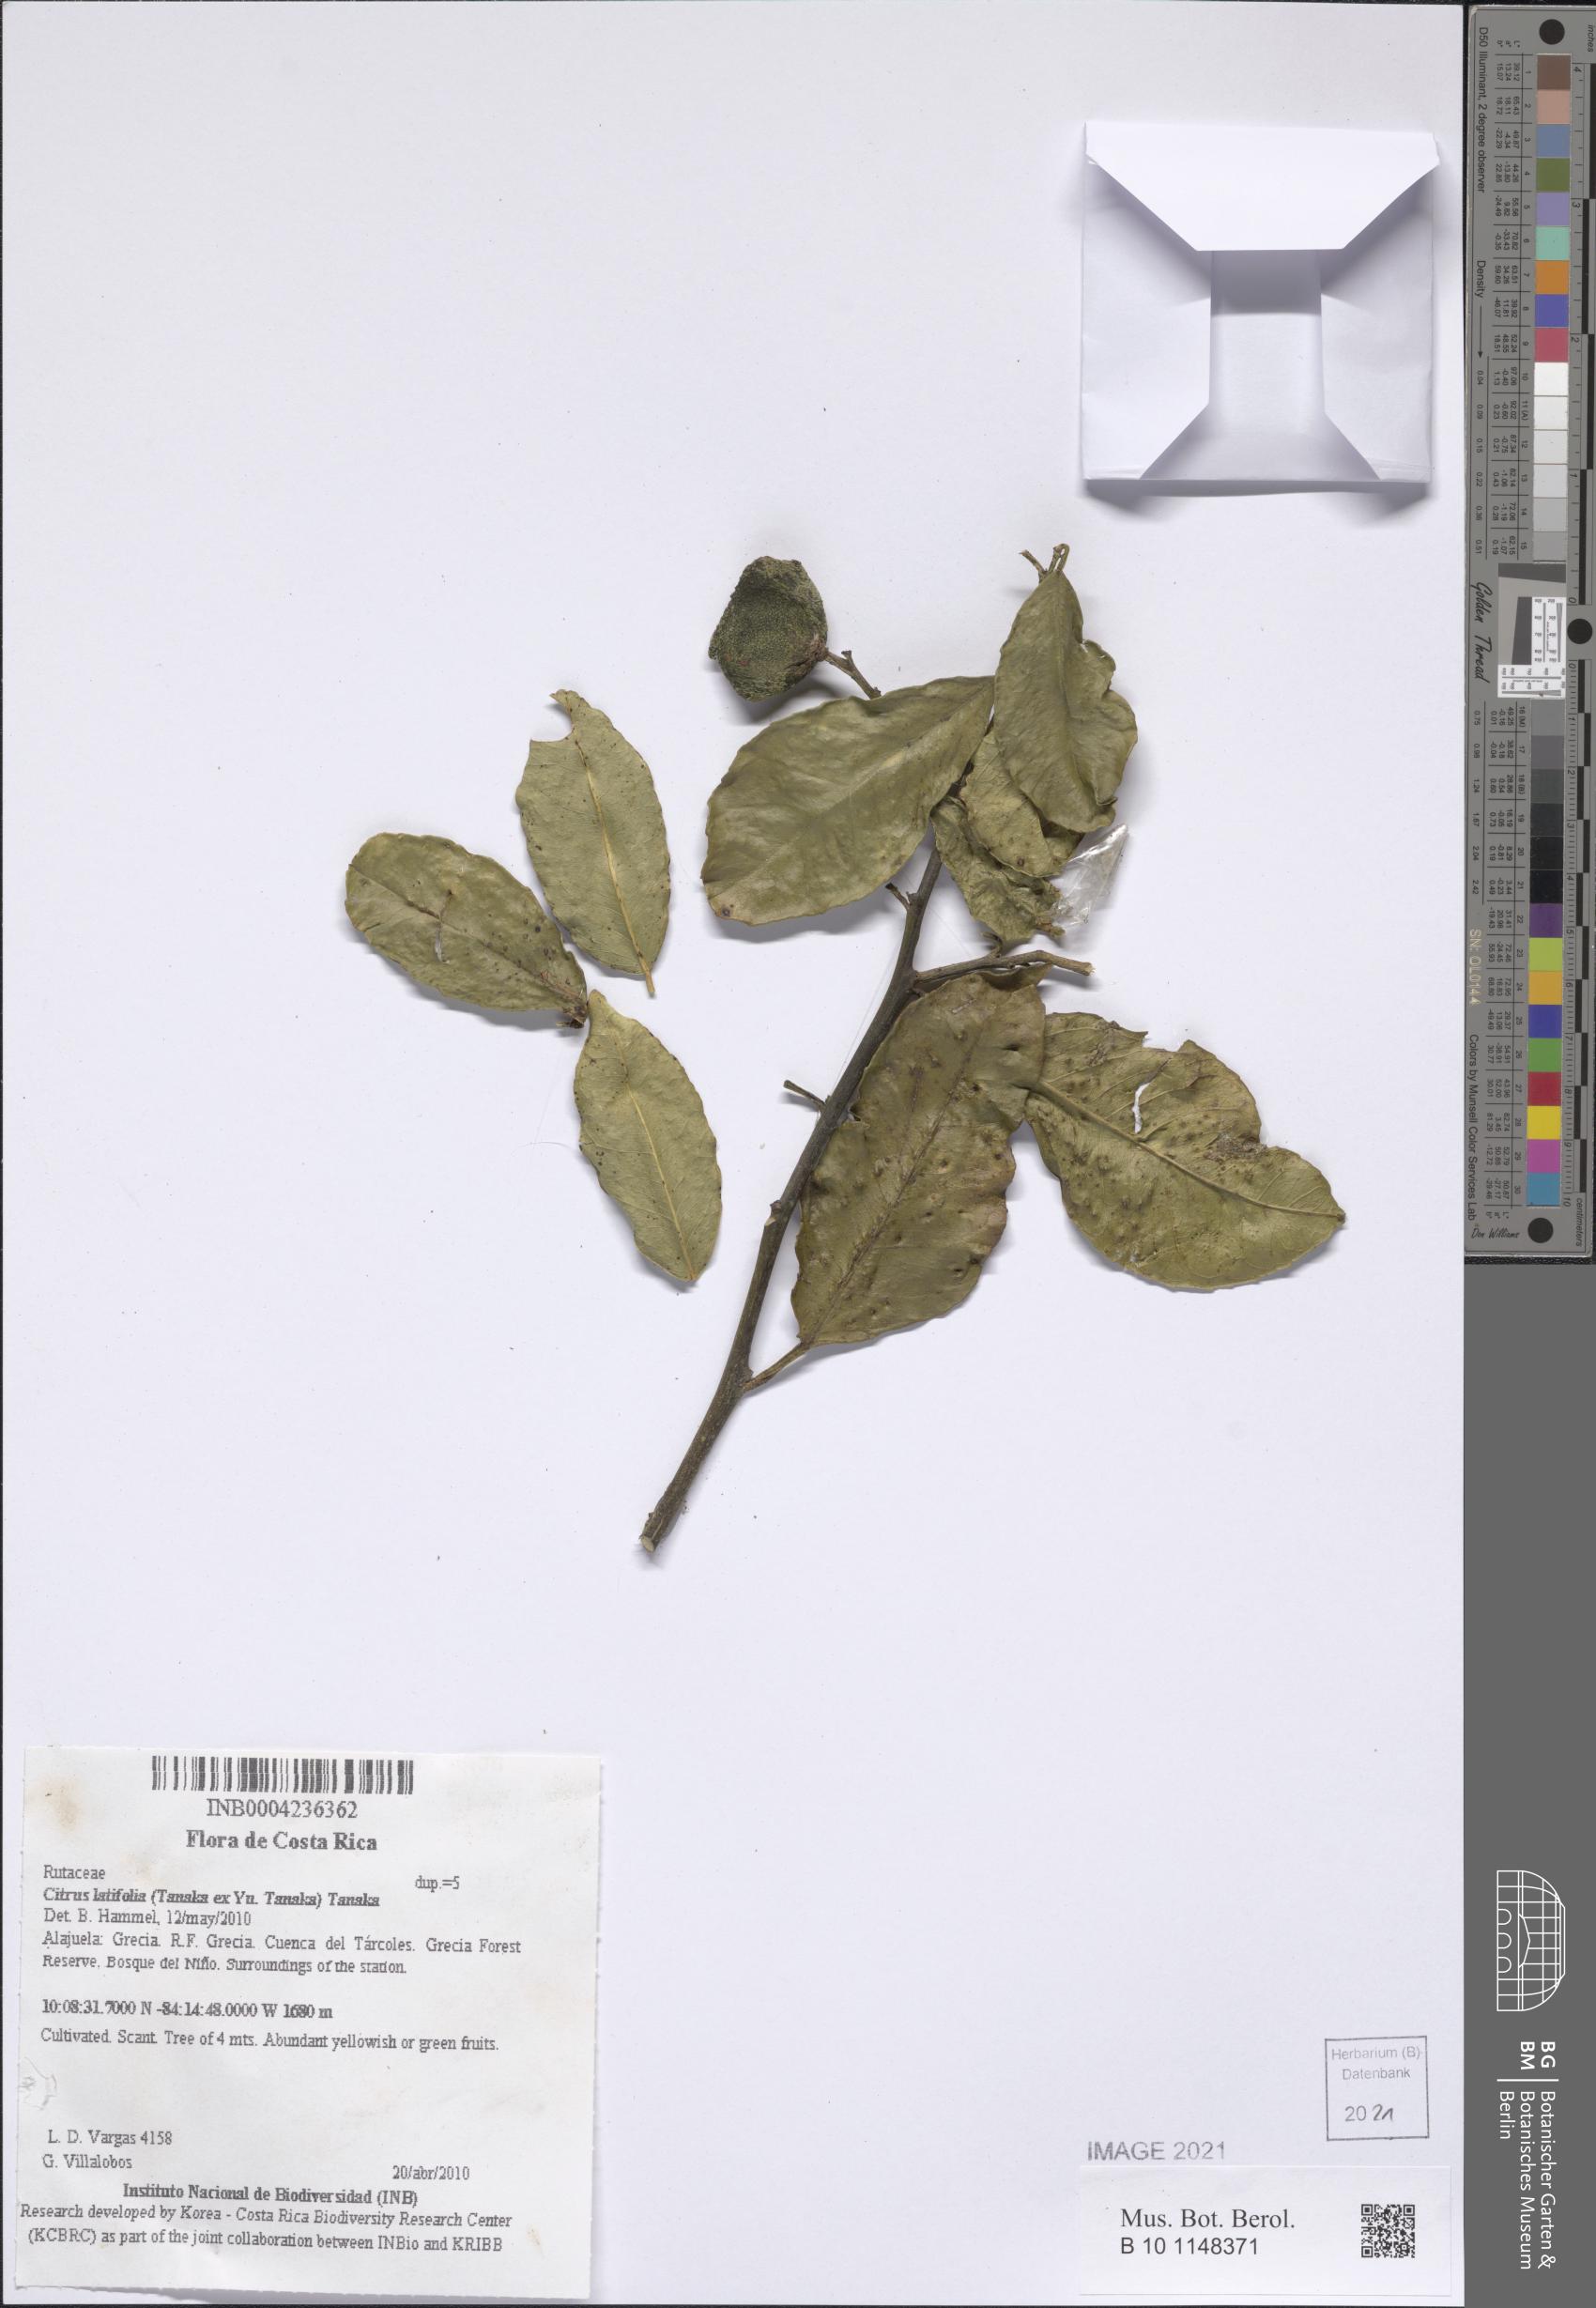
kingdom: Plantae
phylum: Tracheophyta
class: Magnoliopsida
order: Sapindales
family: Rutaceae
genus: Citrus
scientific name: Citrus latifolia
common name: Bearss lime
